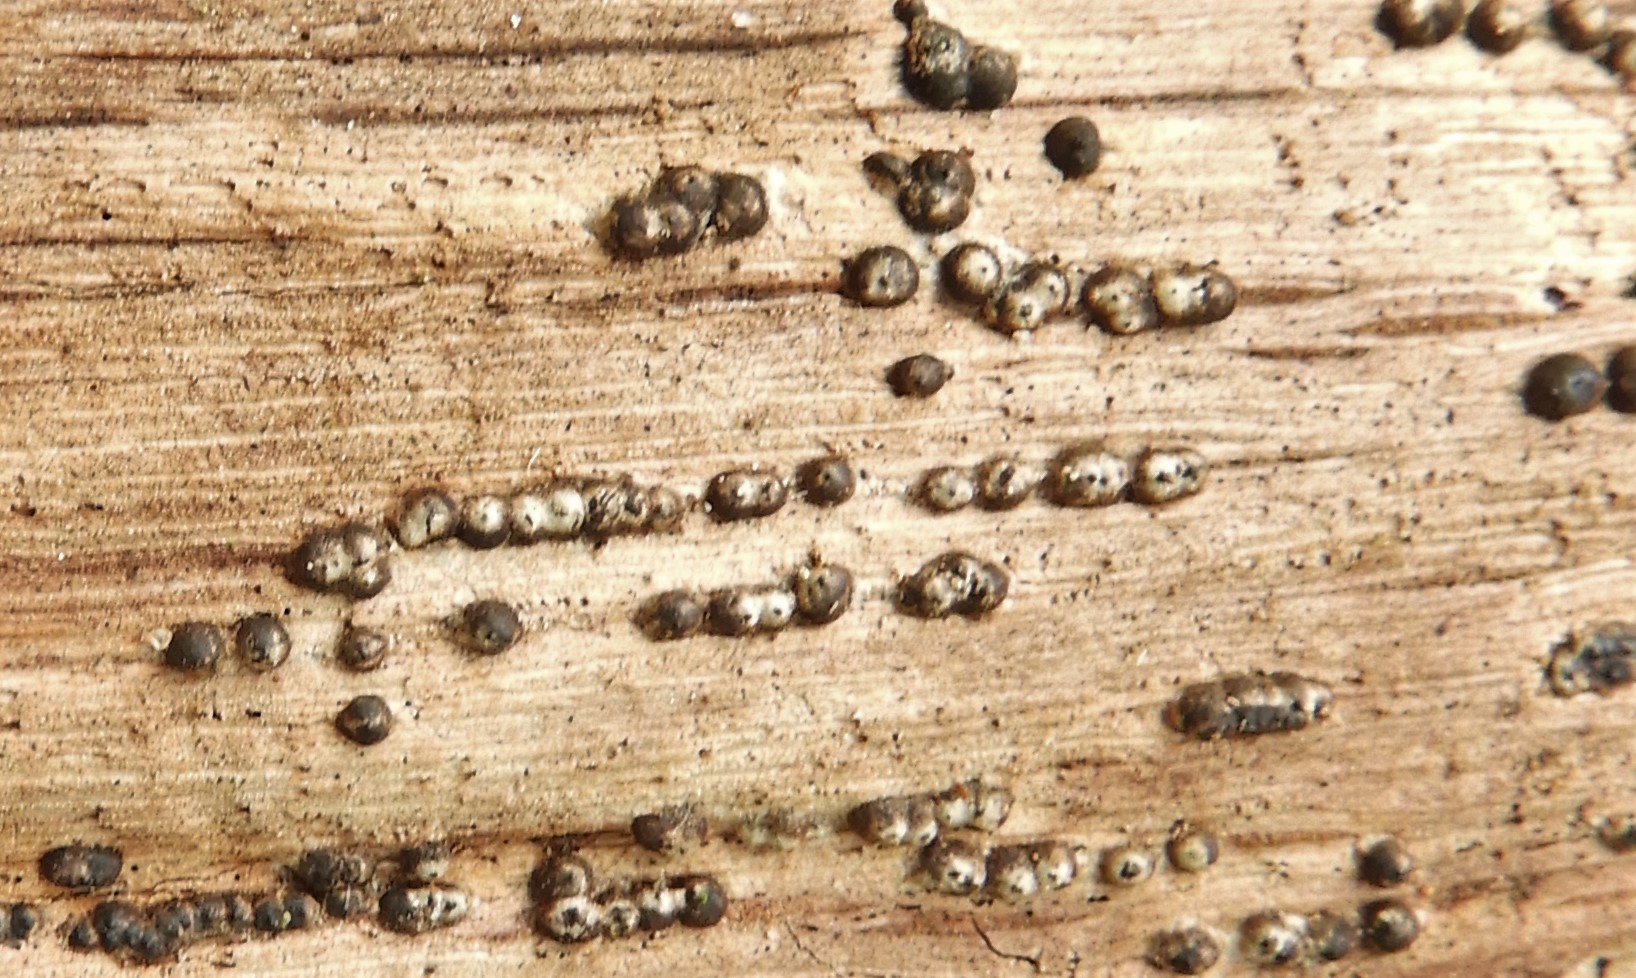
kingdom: Fungi
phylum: Ascomycota
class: Sordariomycetes
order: Xylariales
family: Xylariaceae
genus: Nemania
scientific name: Nemania confluens
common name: indsænket kuldyne
